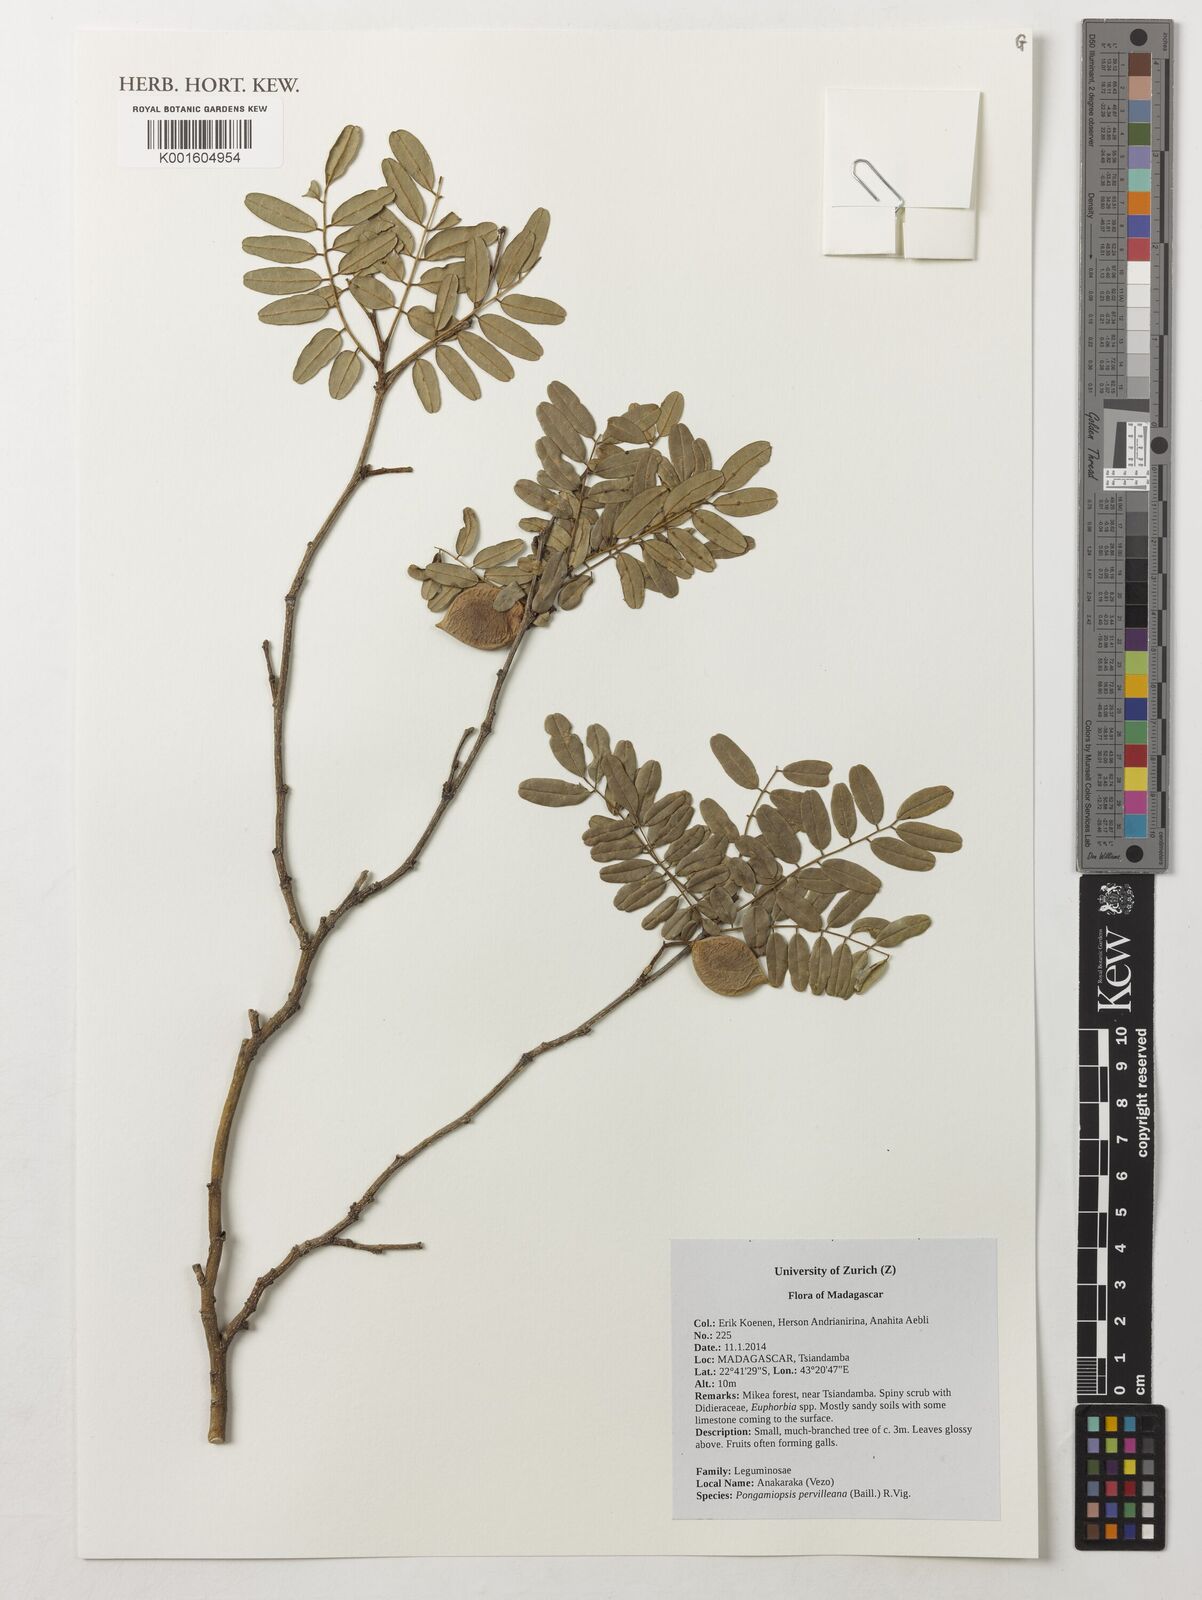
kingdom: Plantae
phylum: Tracheophyta
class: Magnoliopsida
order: Fabales
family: Fabaceae
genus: Pongamiopsis
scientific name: Pongamiopsis pervilleana
